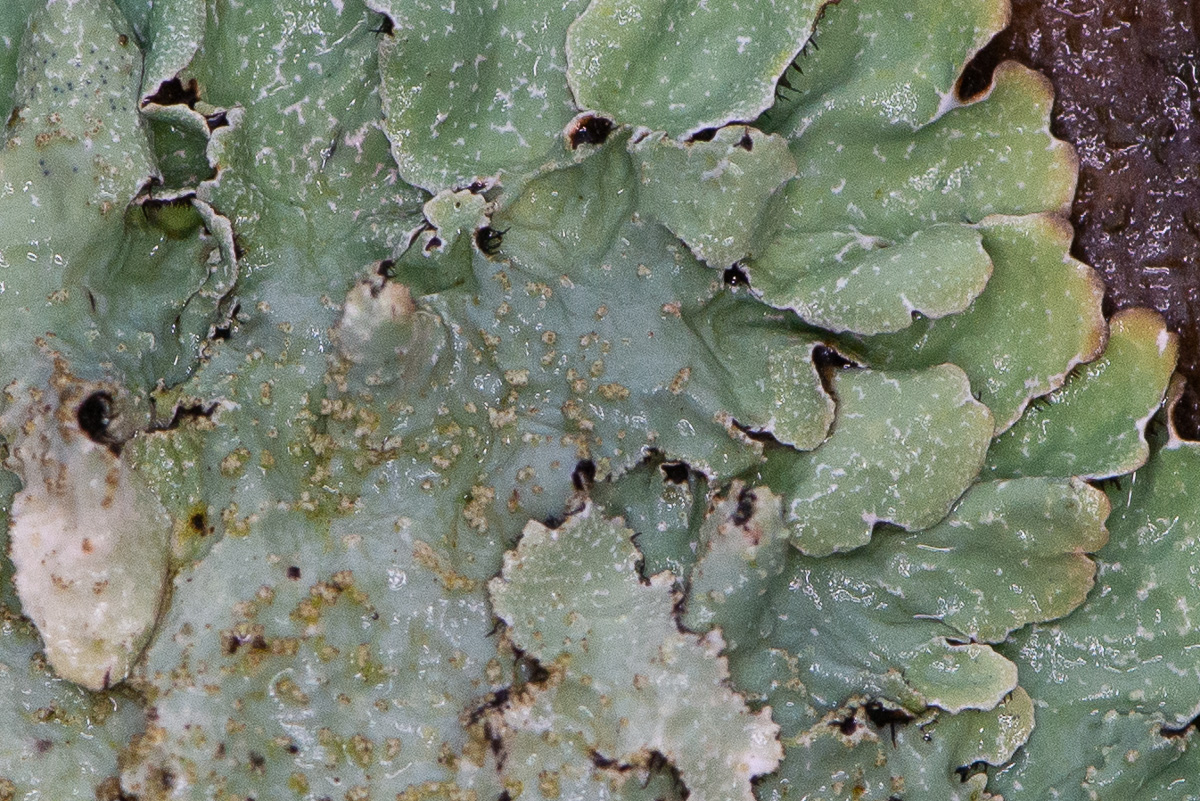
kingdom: Fungi
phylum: Ascomycota
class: Lecanoromycetes
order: Lecanorales
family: Parmeliaceae
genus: Parmelia
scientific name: Parmelia sulcata
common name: rynket skållav
